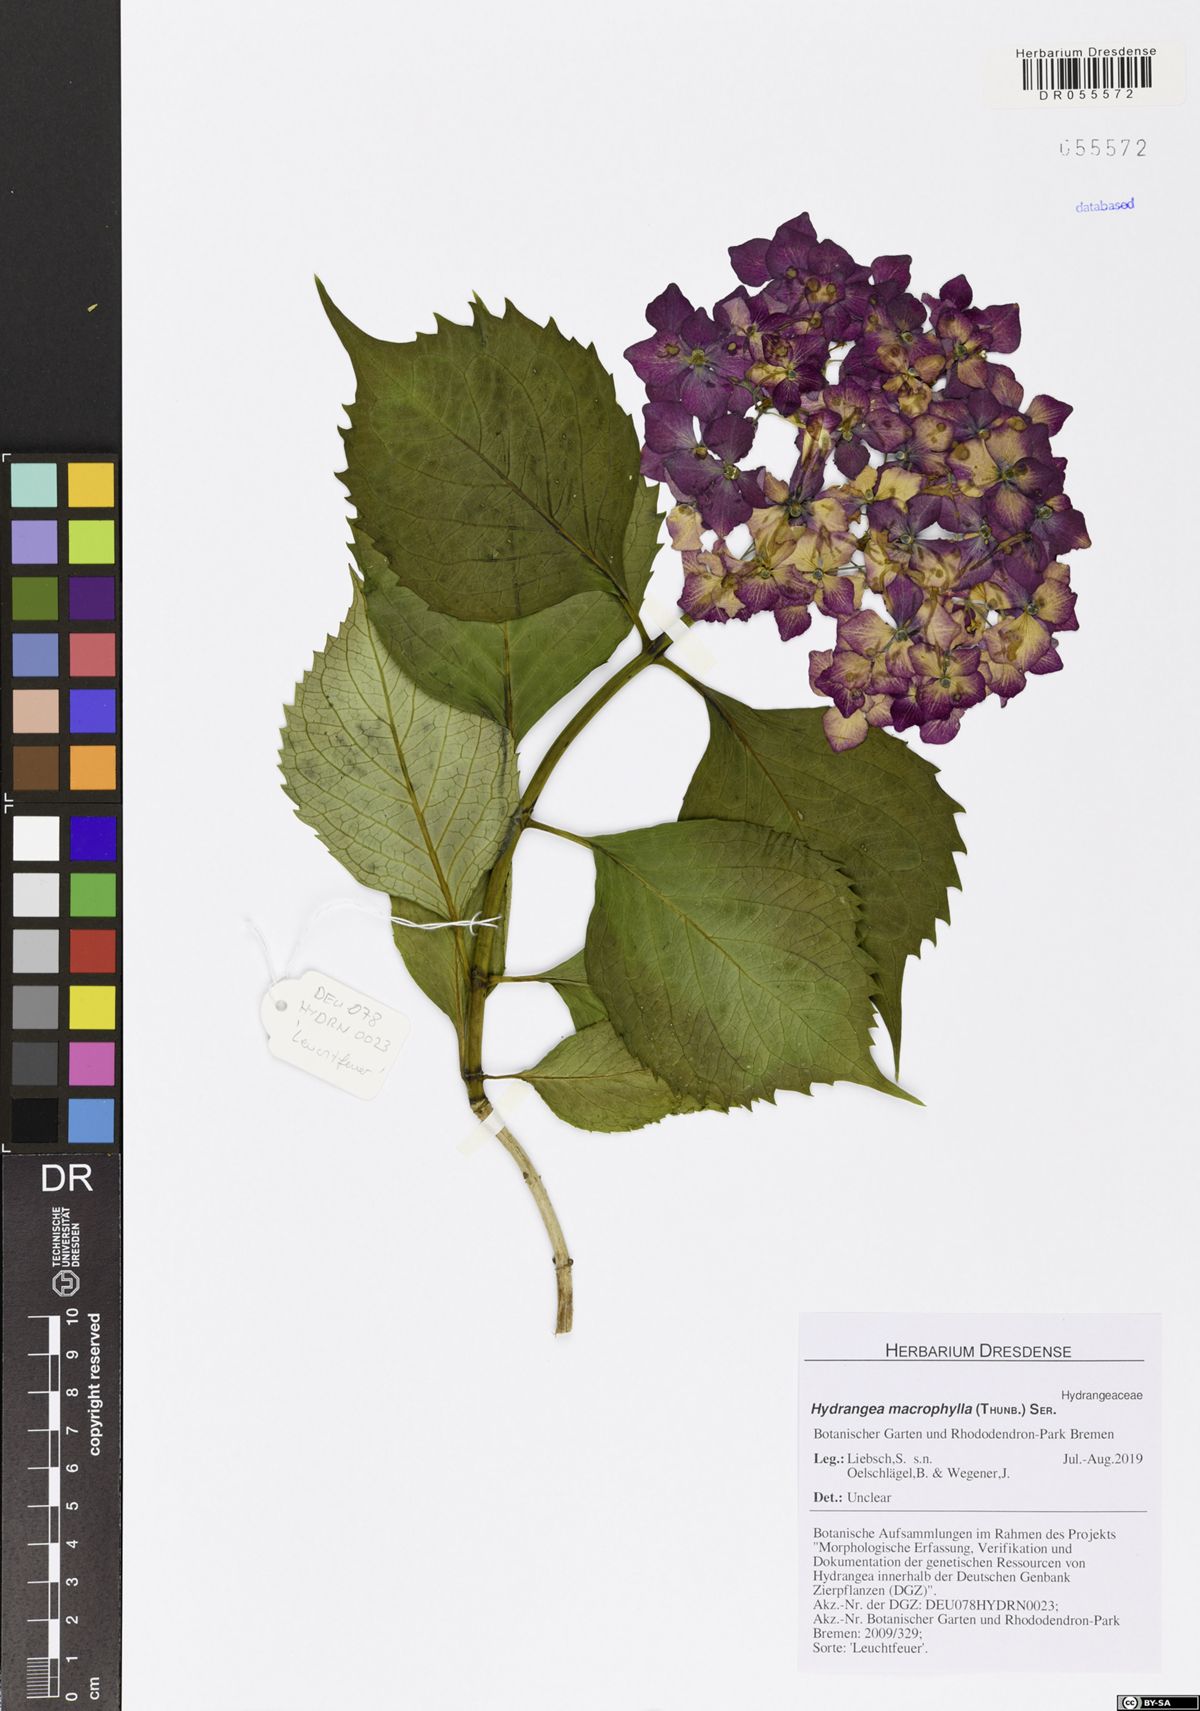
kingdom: Plantae
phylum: Tracheophyta
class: Magnoliopsida
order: Cornales
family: Hydrangeaceae
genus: Hydrangea
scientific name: Hydrangea macrophylla
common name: Hydrangea
